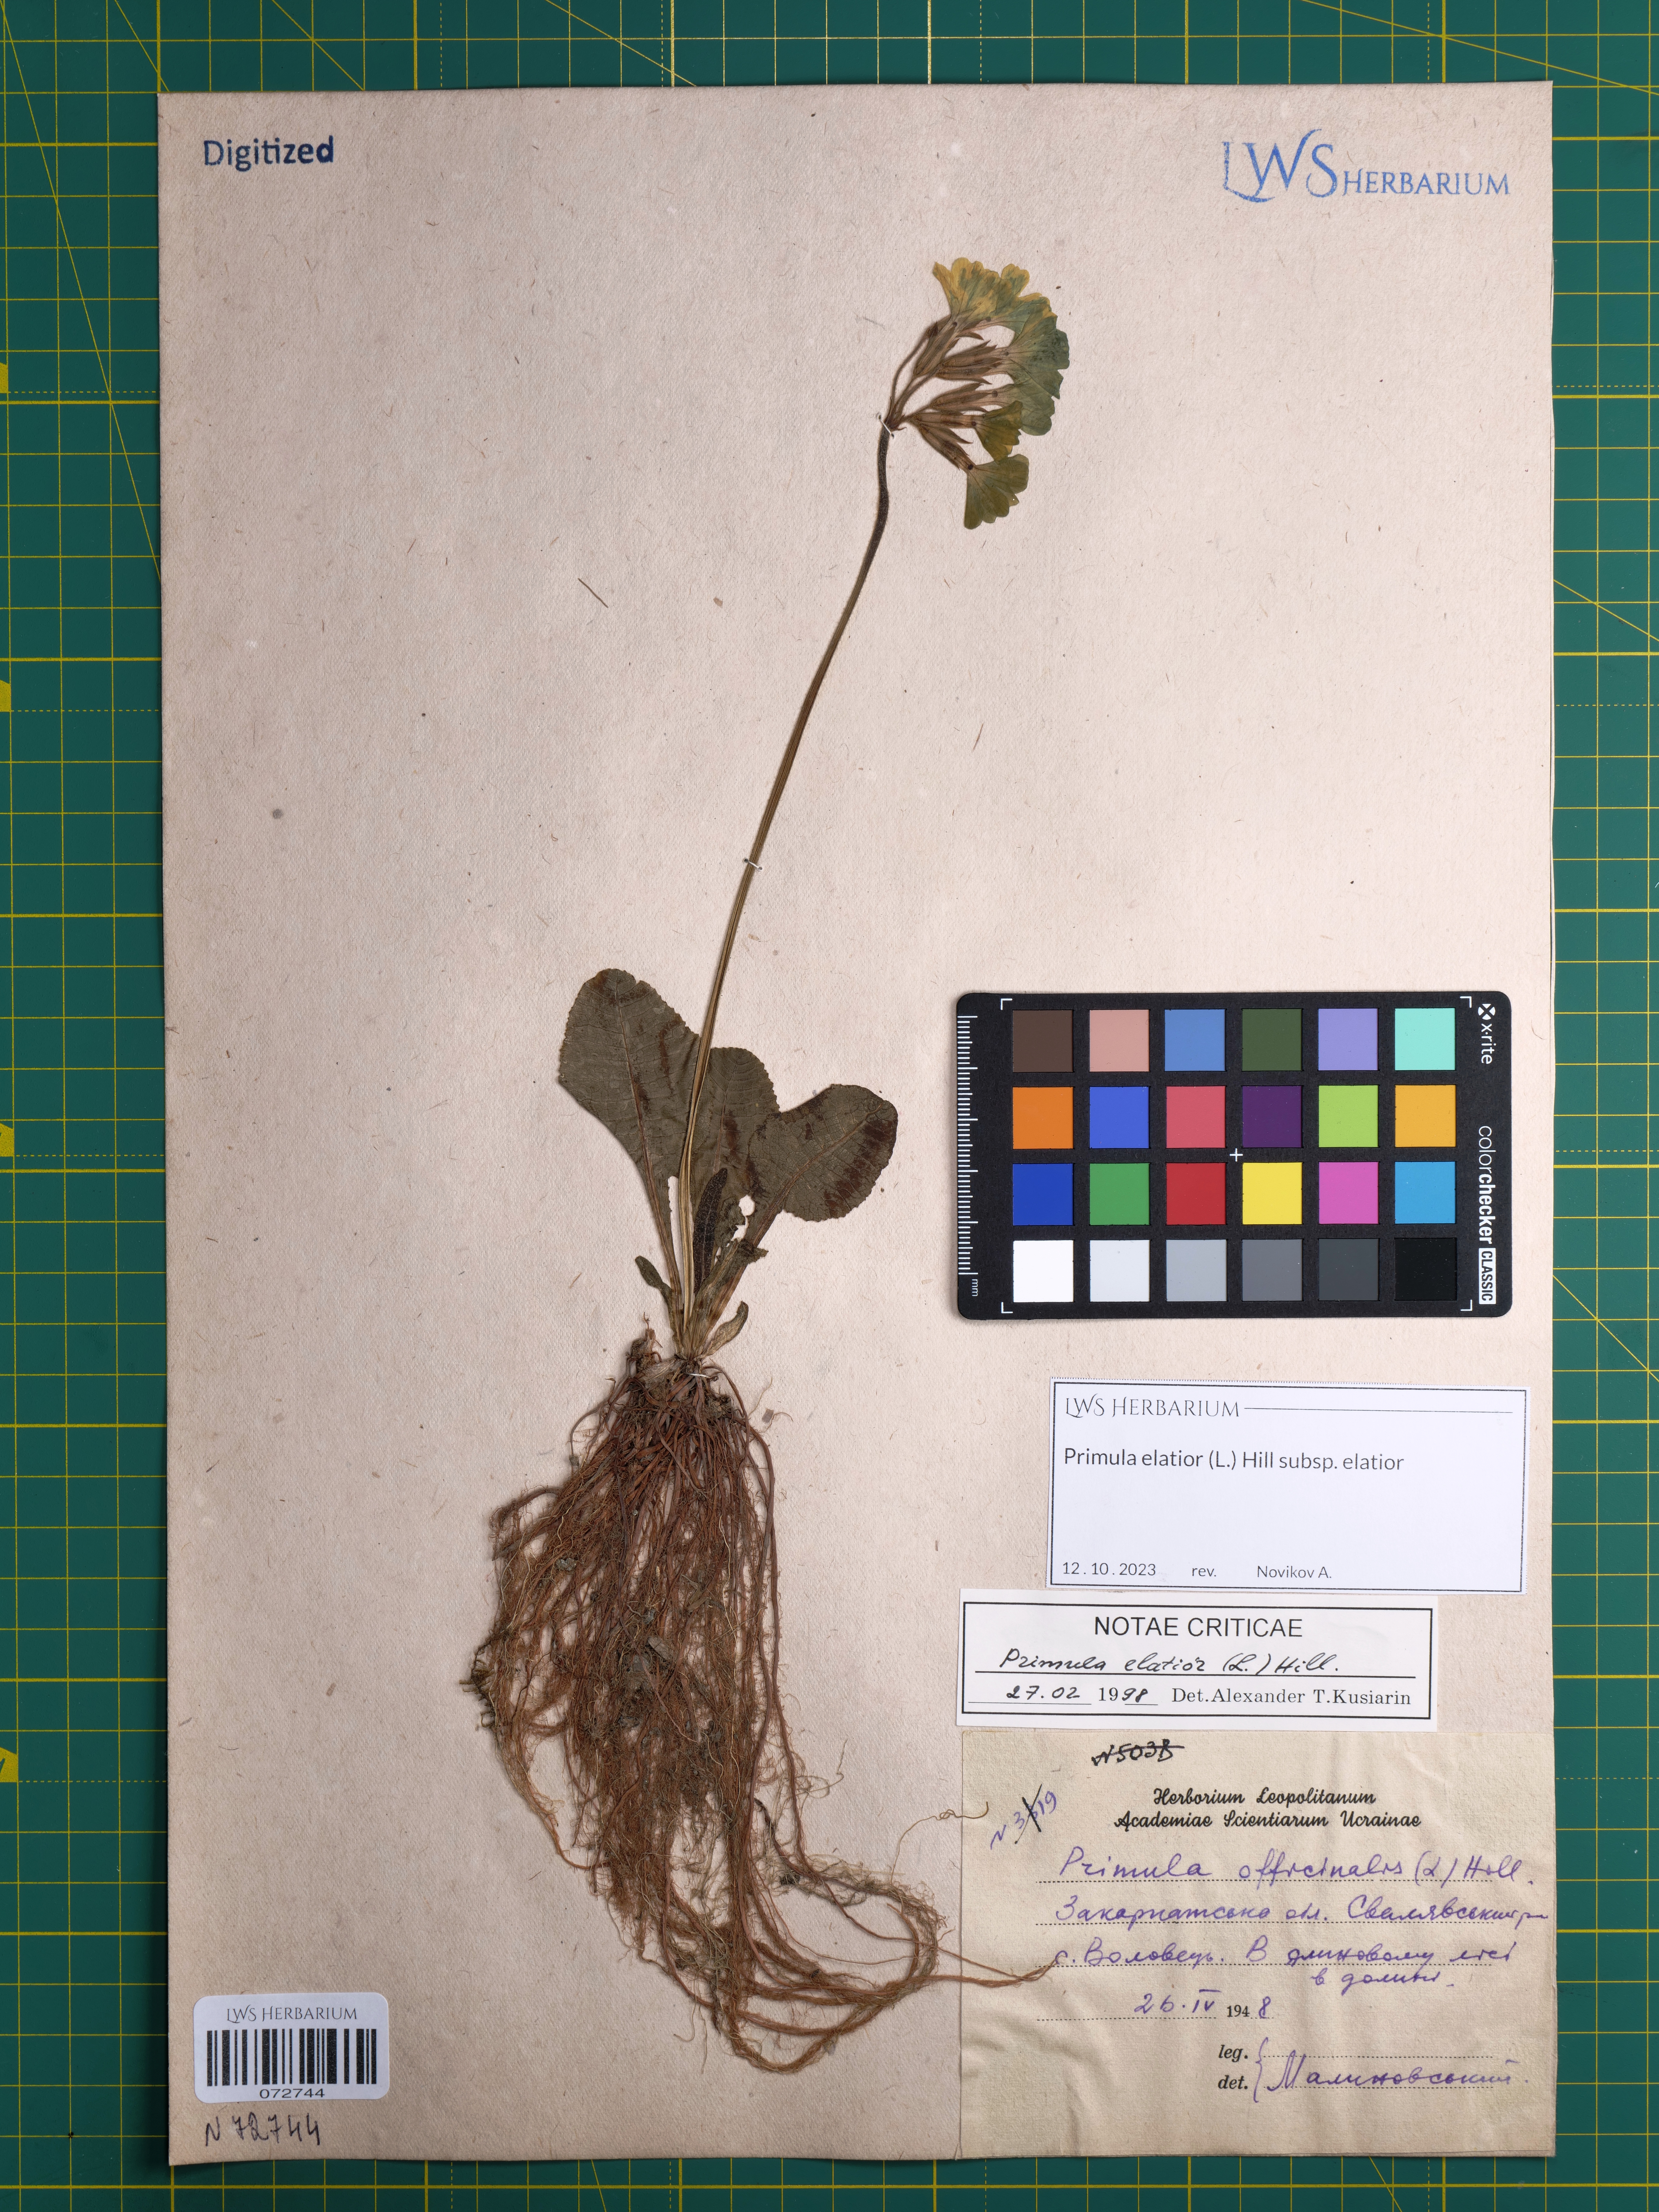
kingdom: Plantae
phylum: Tracheophyta
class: Magnoliopsida
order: Ericales
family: Primulaceae
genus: Primula
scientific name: Primula elatior
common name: Oxlip
